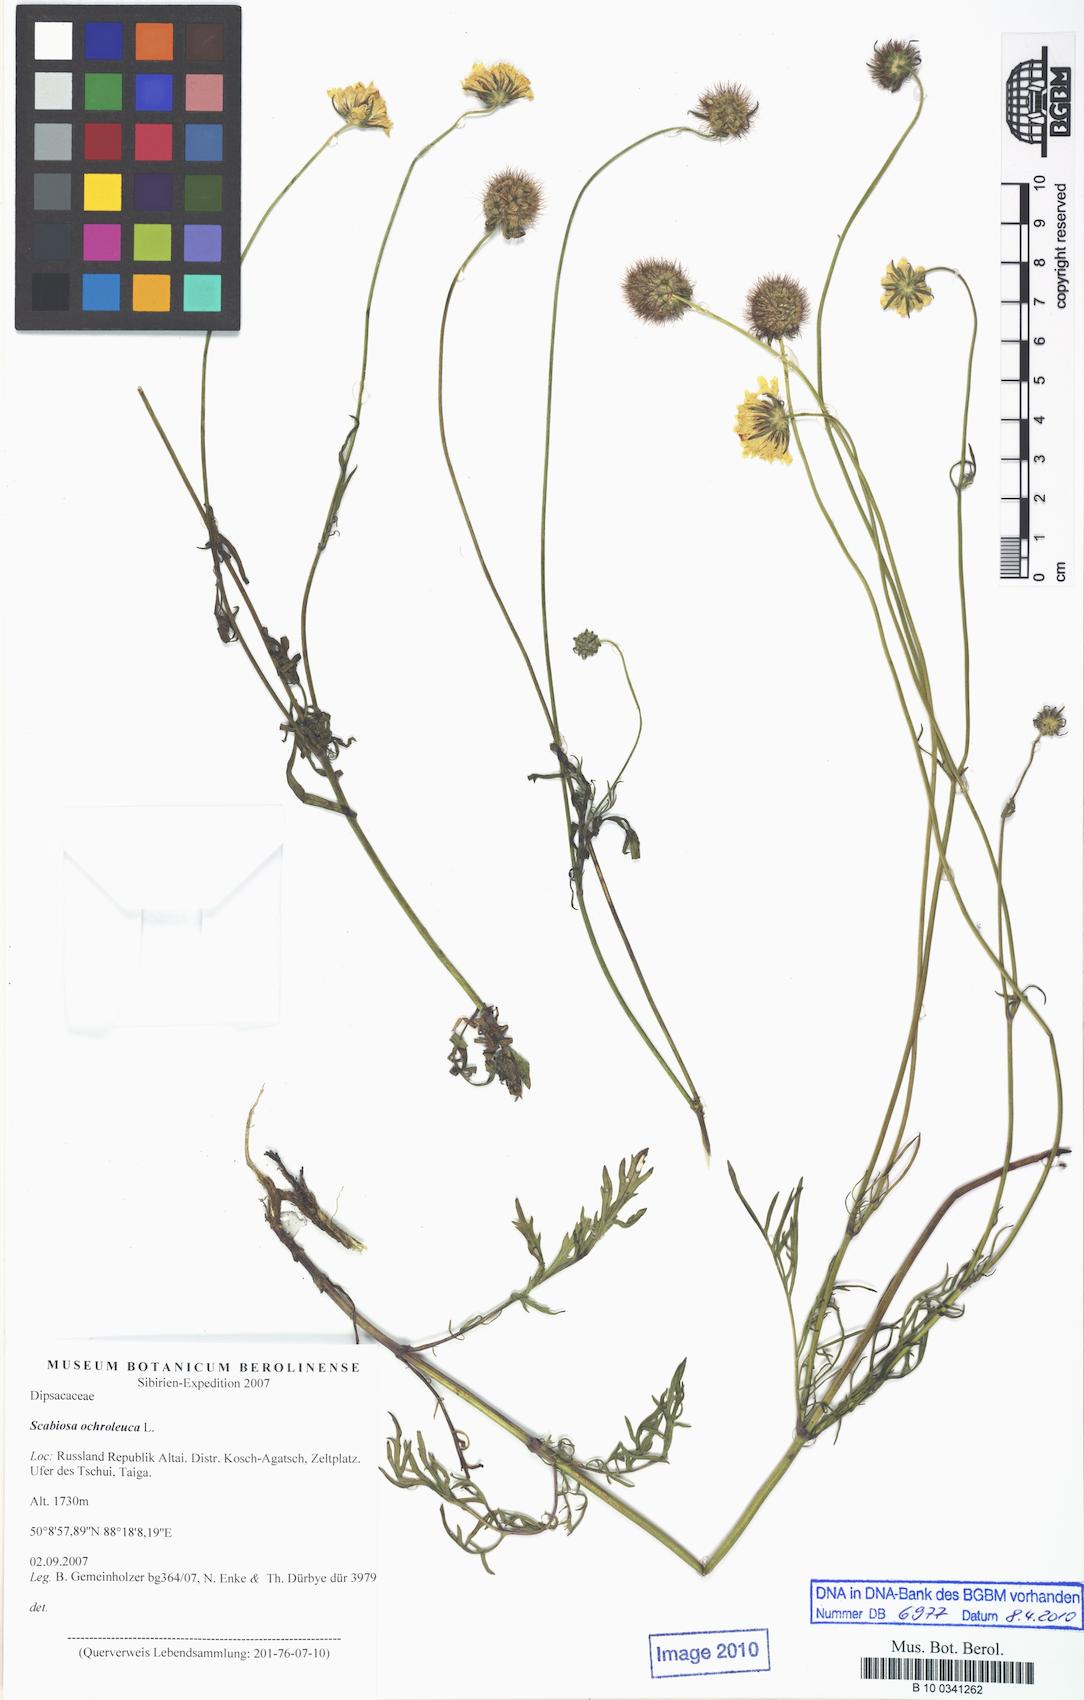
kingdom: Plantae
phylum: Tracheophyta
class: Magnoliopsida
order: Dipsacales
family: Caprifoliaceae
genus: Scabiosa
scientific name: Scabiosa ochroleuca
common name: Cream pincushions
